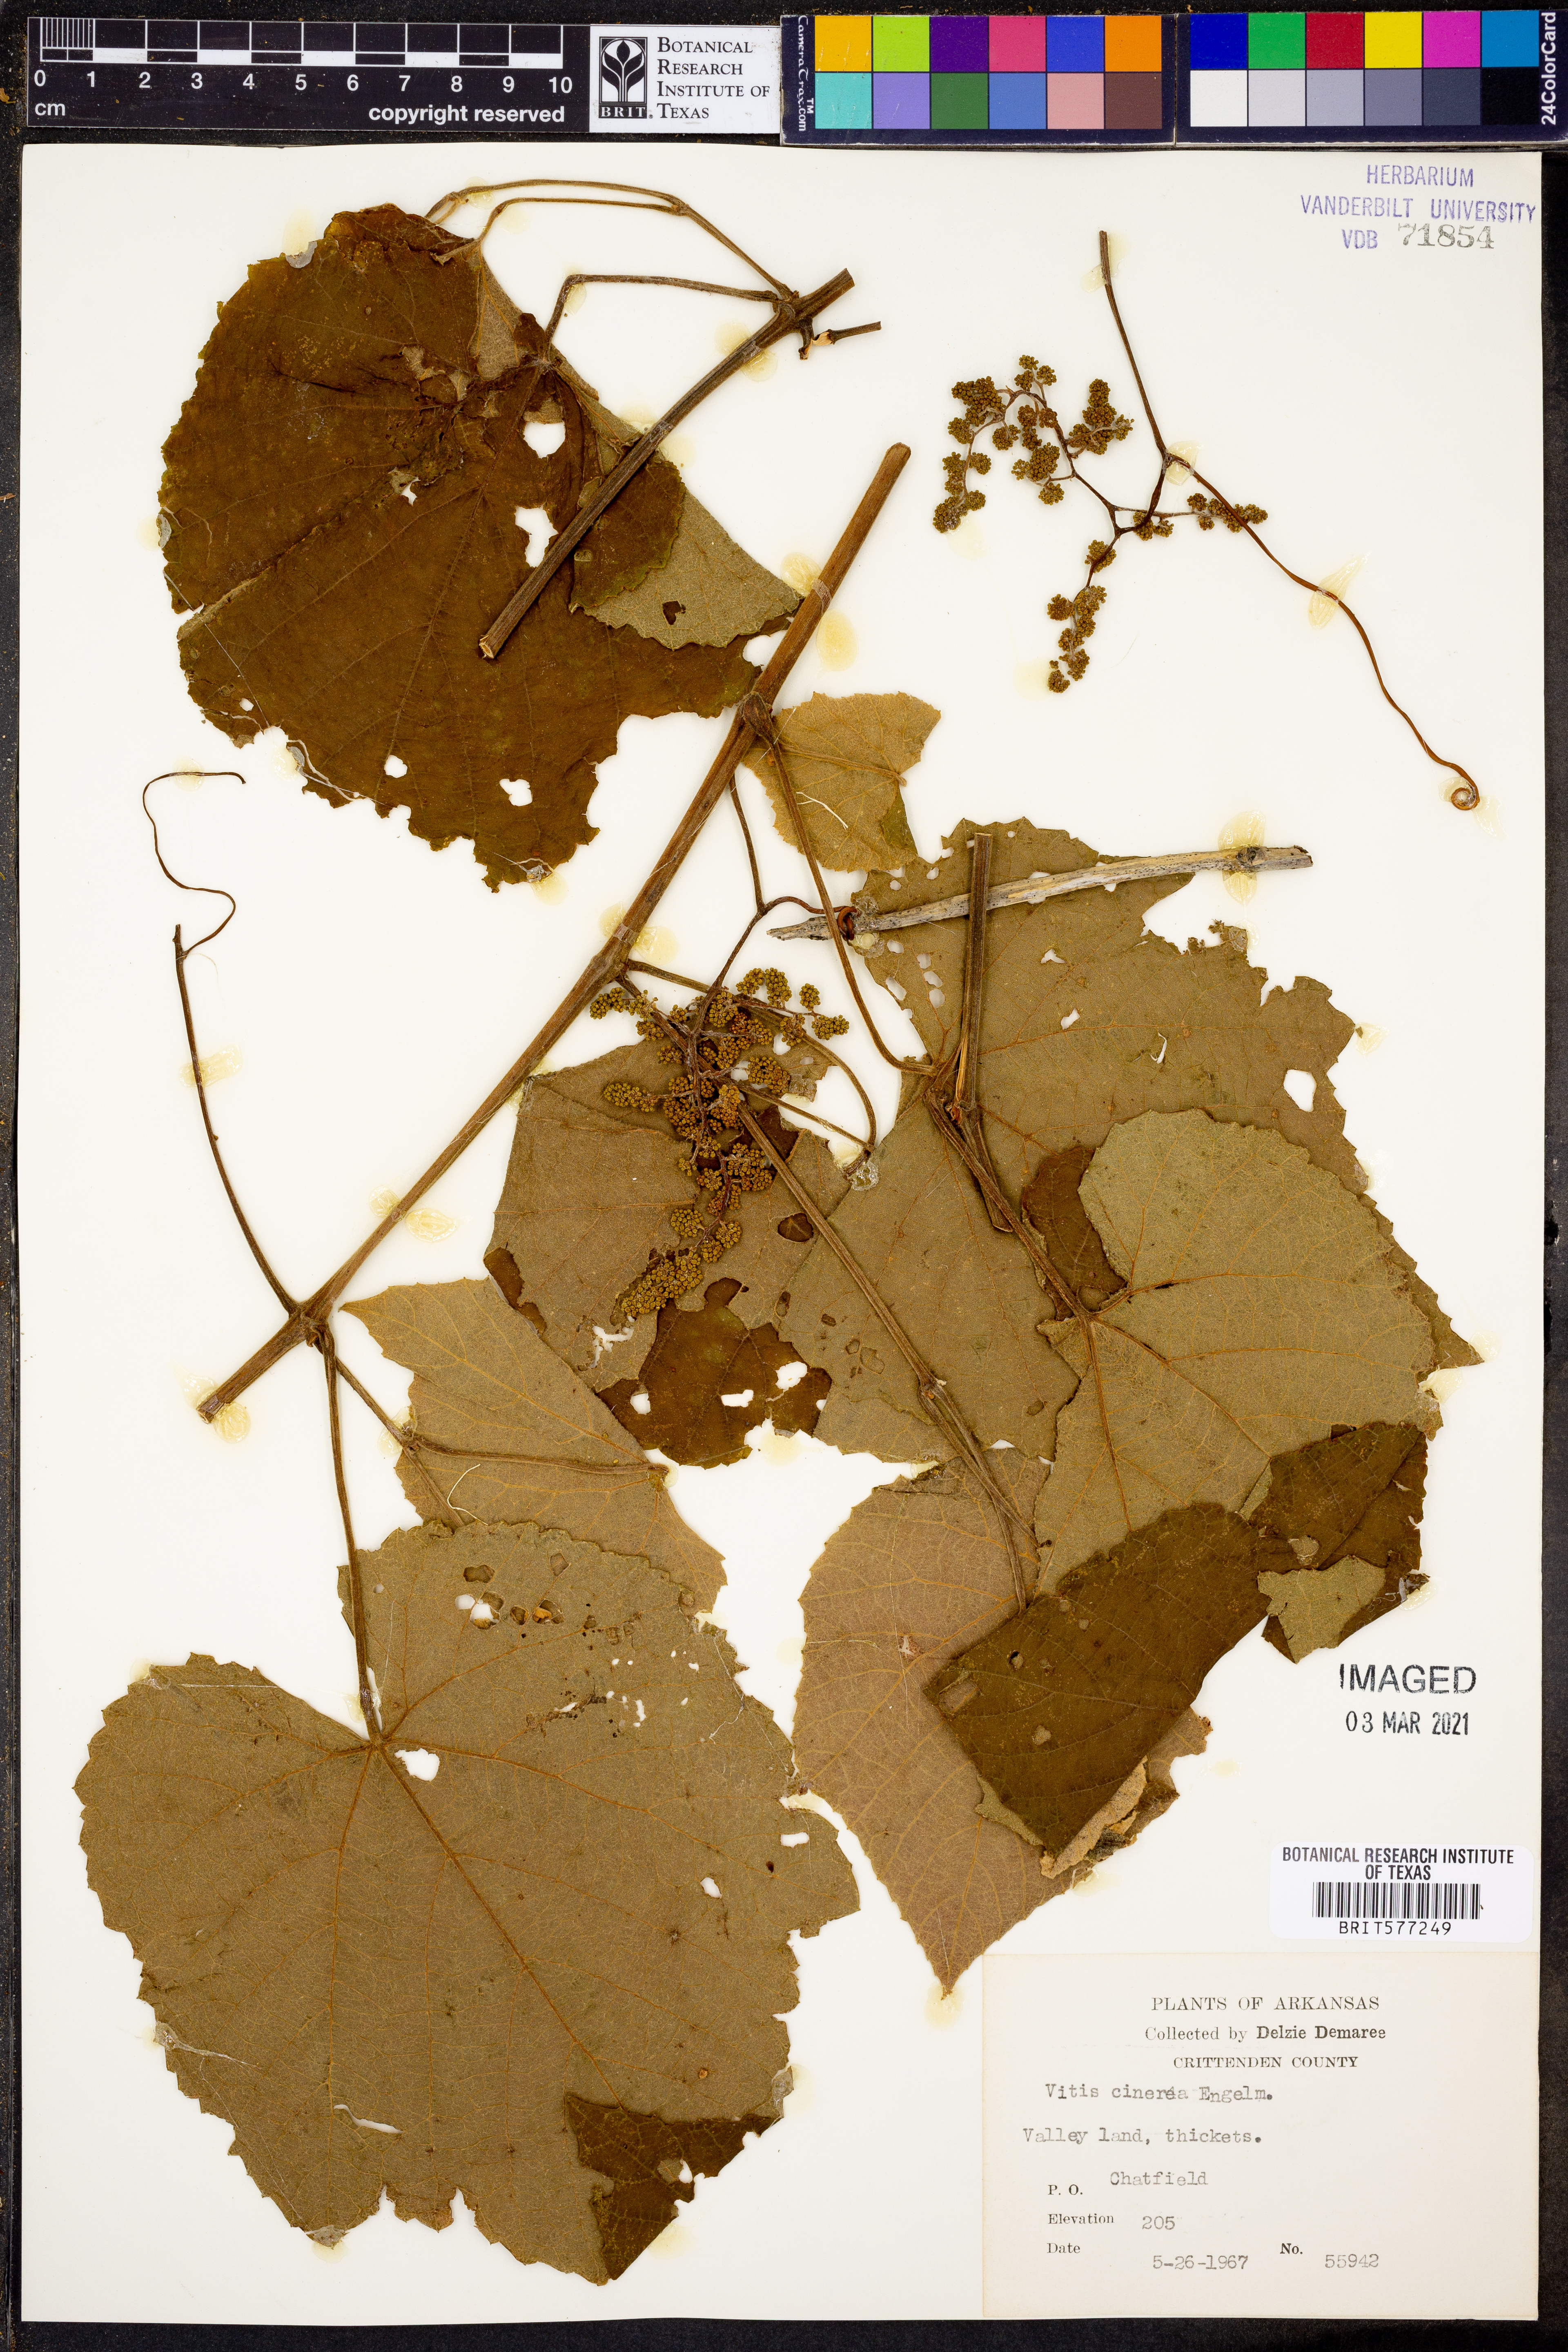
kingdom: Plantae
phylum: Tracheophyta
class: Magnoliopsida
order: Vitales
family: Vitaceae
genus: Vitis
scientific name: Vitis cinerea
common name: Ashy grape
